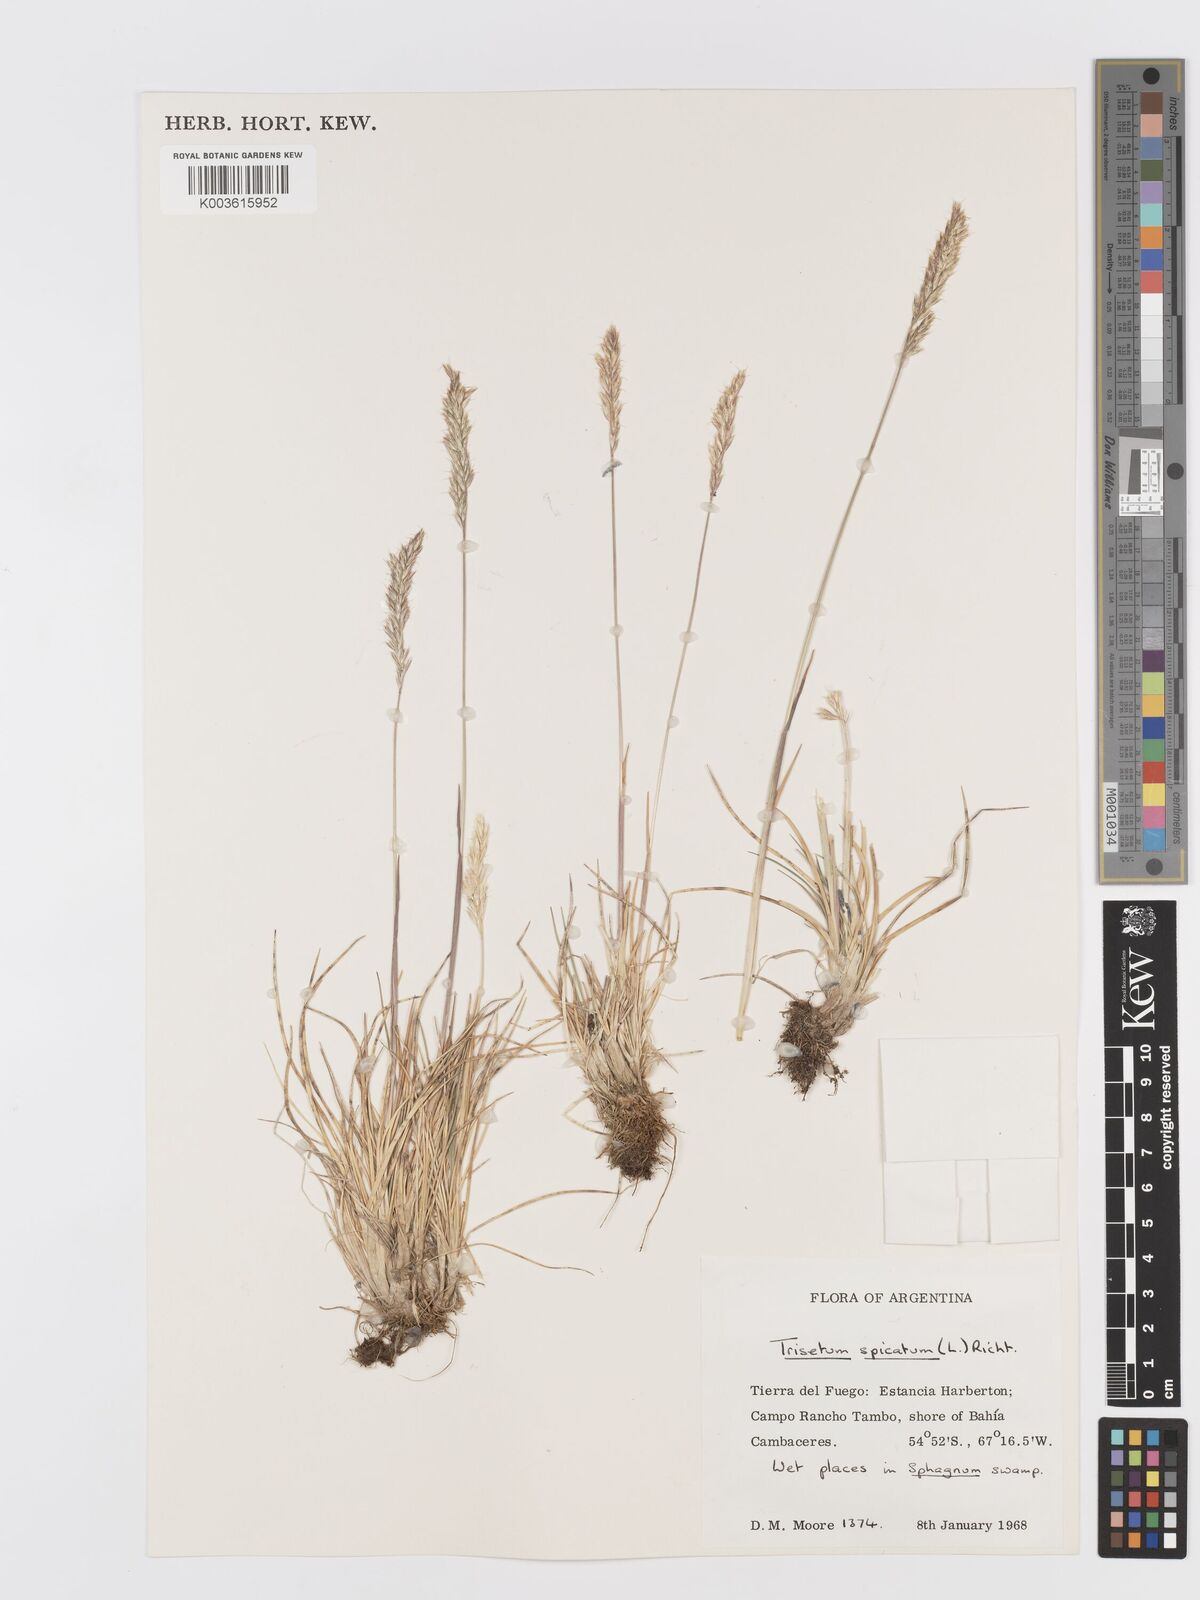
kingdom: Plantae
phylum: Tracheophyta
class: Liliopsida
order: Poales
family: Poaceae
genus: Koeleria
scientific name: Koeleria spicata
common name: Mountain trisetum
